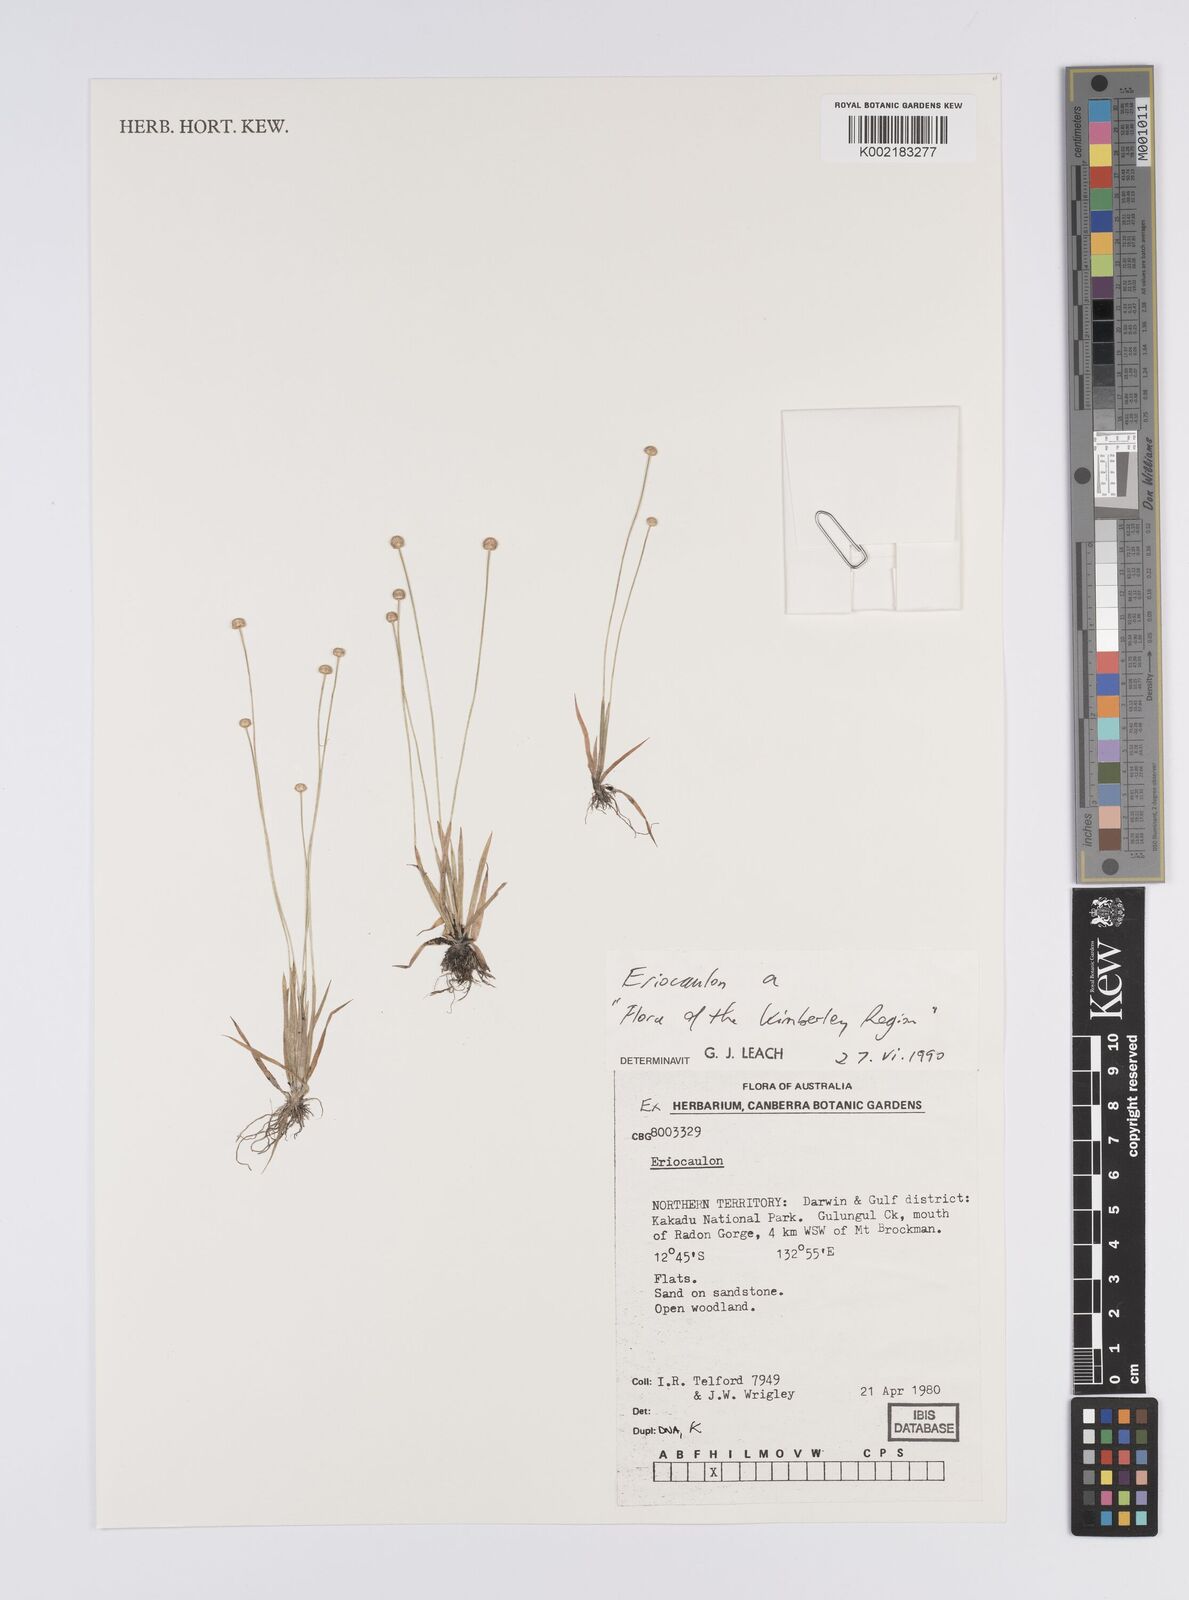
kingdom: Plantae
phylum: Tracheophyta
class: Liliopsida
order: Poales
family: Eriocaulaceae
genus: Eriocaulon
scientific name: Eriocaulon
